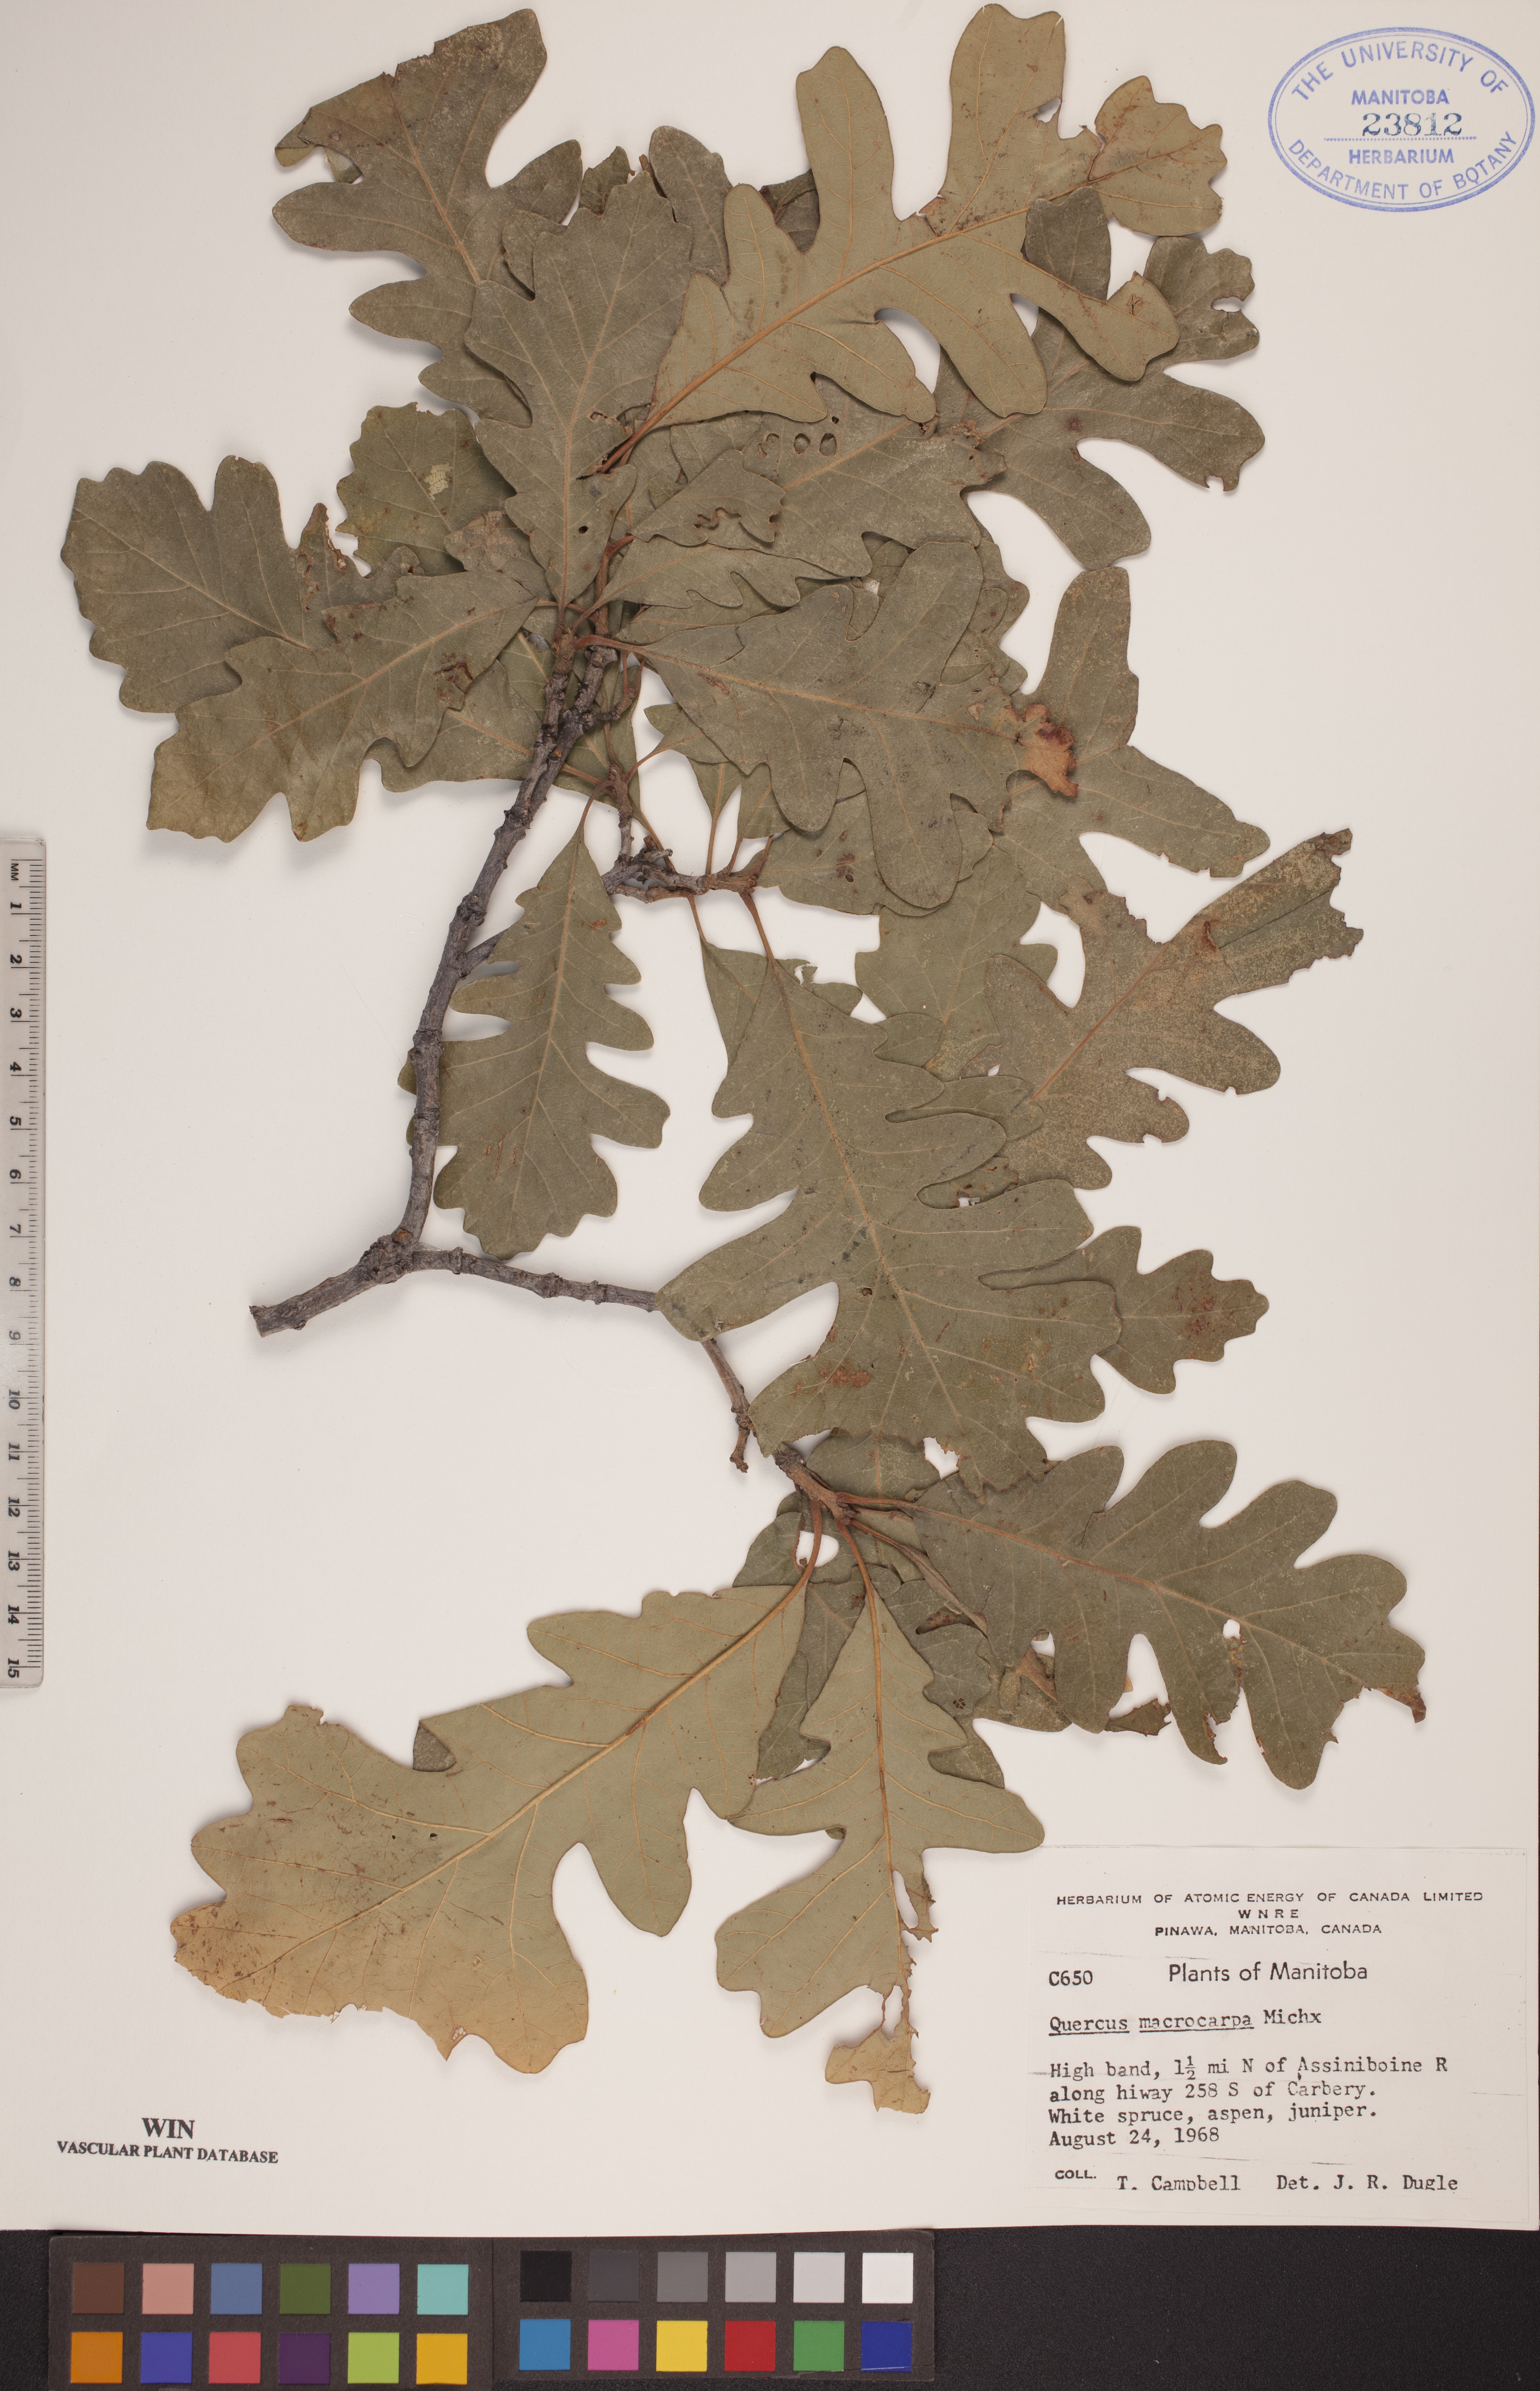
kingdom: Plantae
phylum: Tracheophyta
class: Magnoliopsida
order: Fagales
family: Fagaceae
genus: Quercus
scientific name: Quercus macrocarpa
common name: Bur oak
